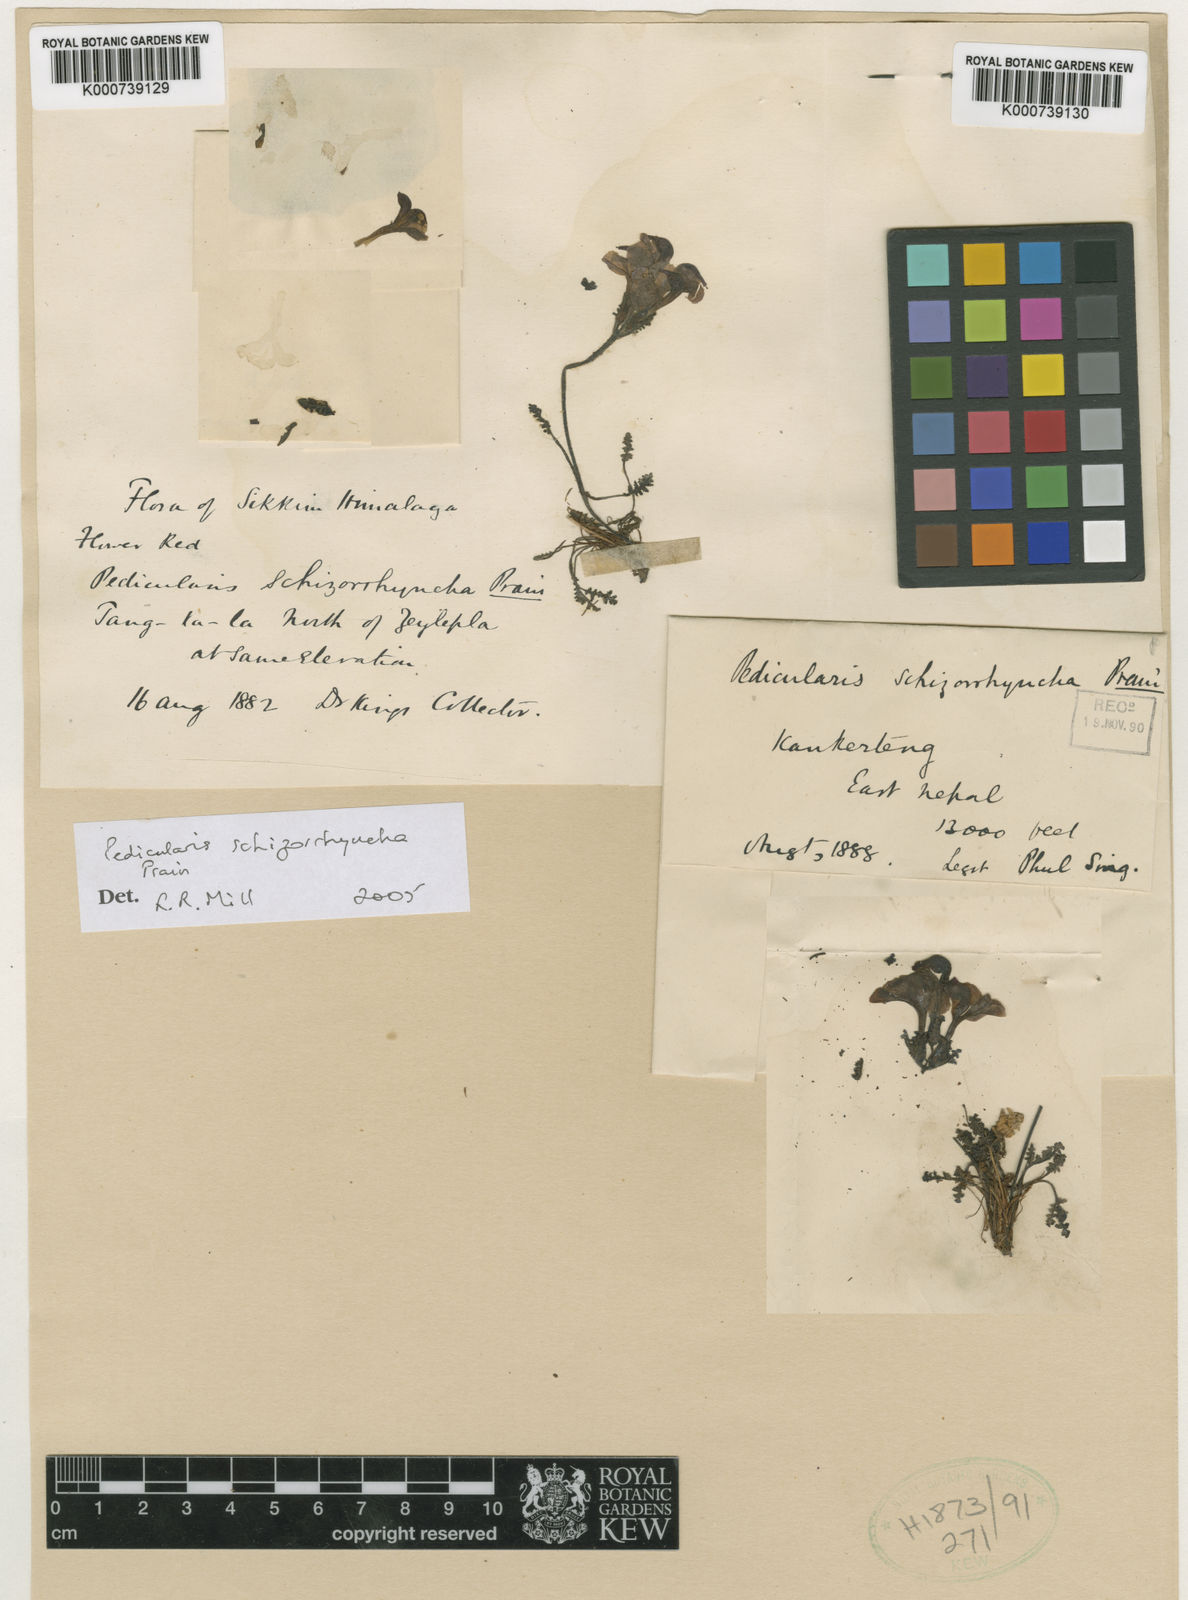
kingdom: Plantae
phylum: Tracheophyta
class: Magnoliopsida
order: Lamiales
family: Orobanchaceae
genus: Pedicularis
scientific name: Pedicularis schizorrhyncha
